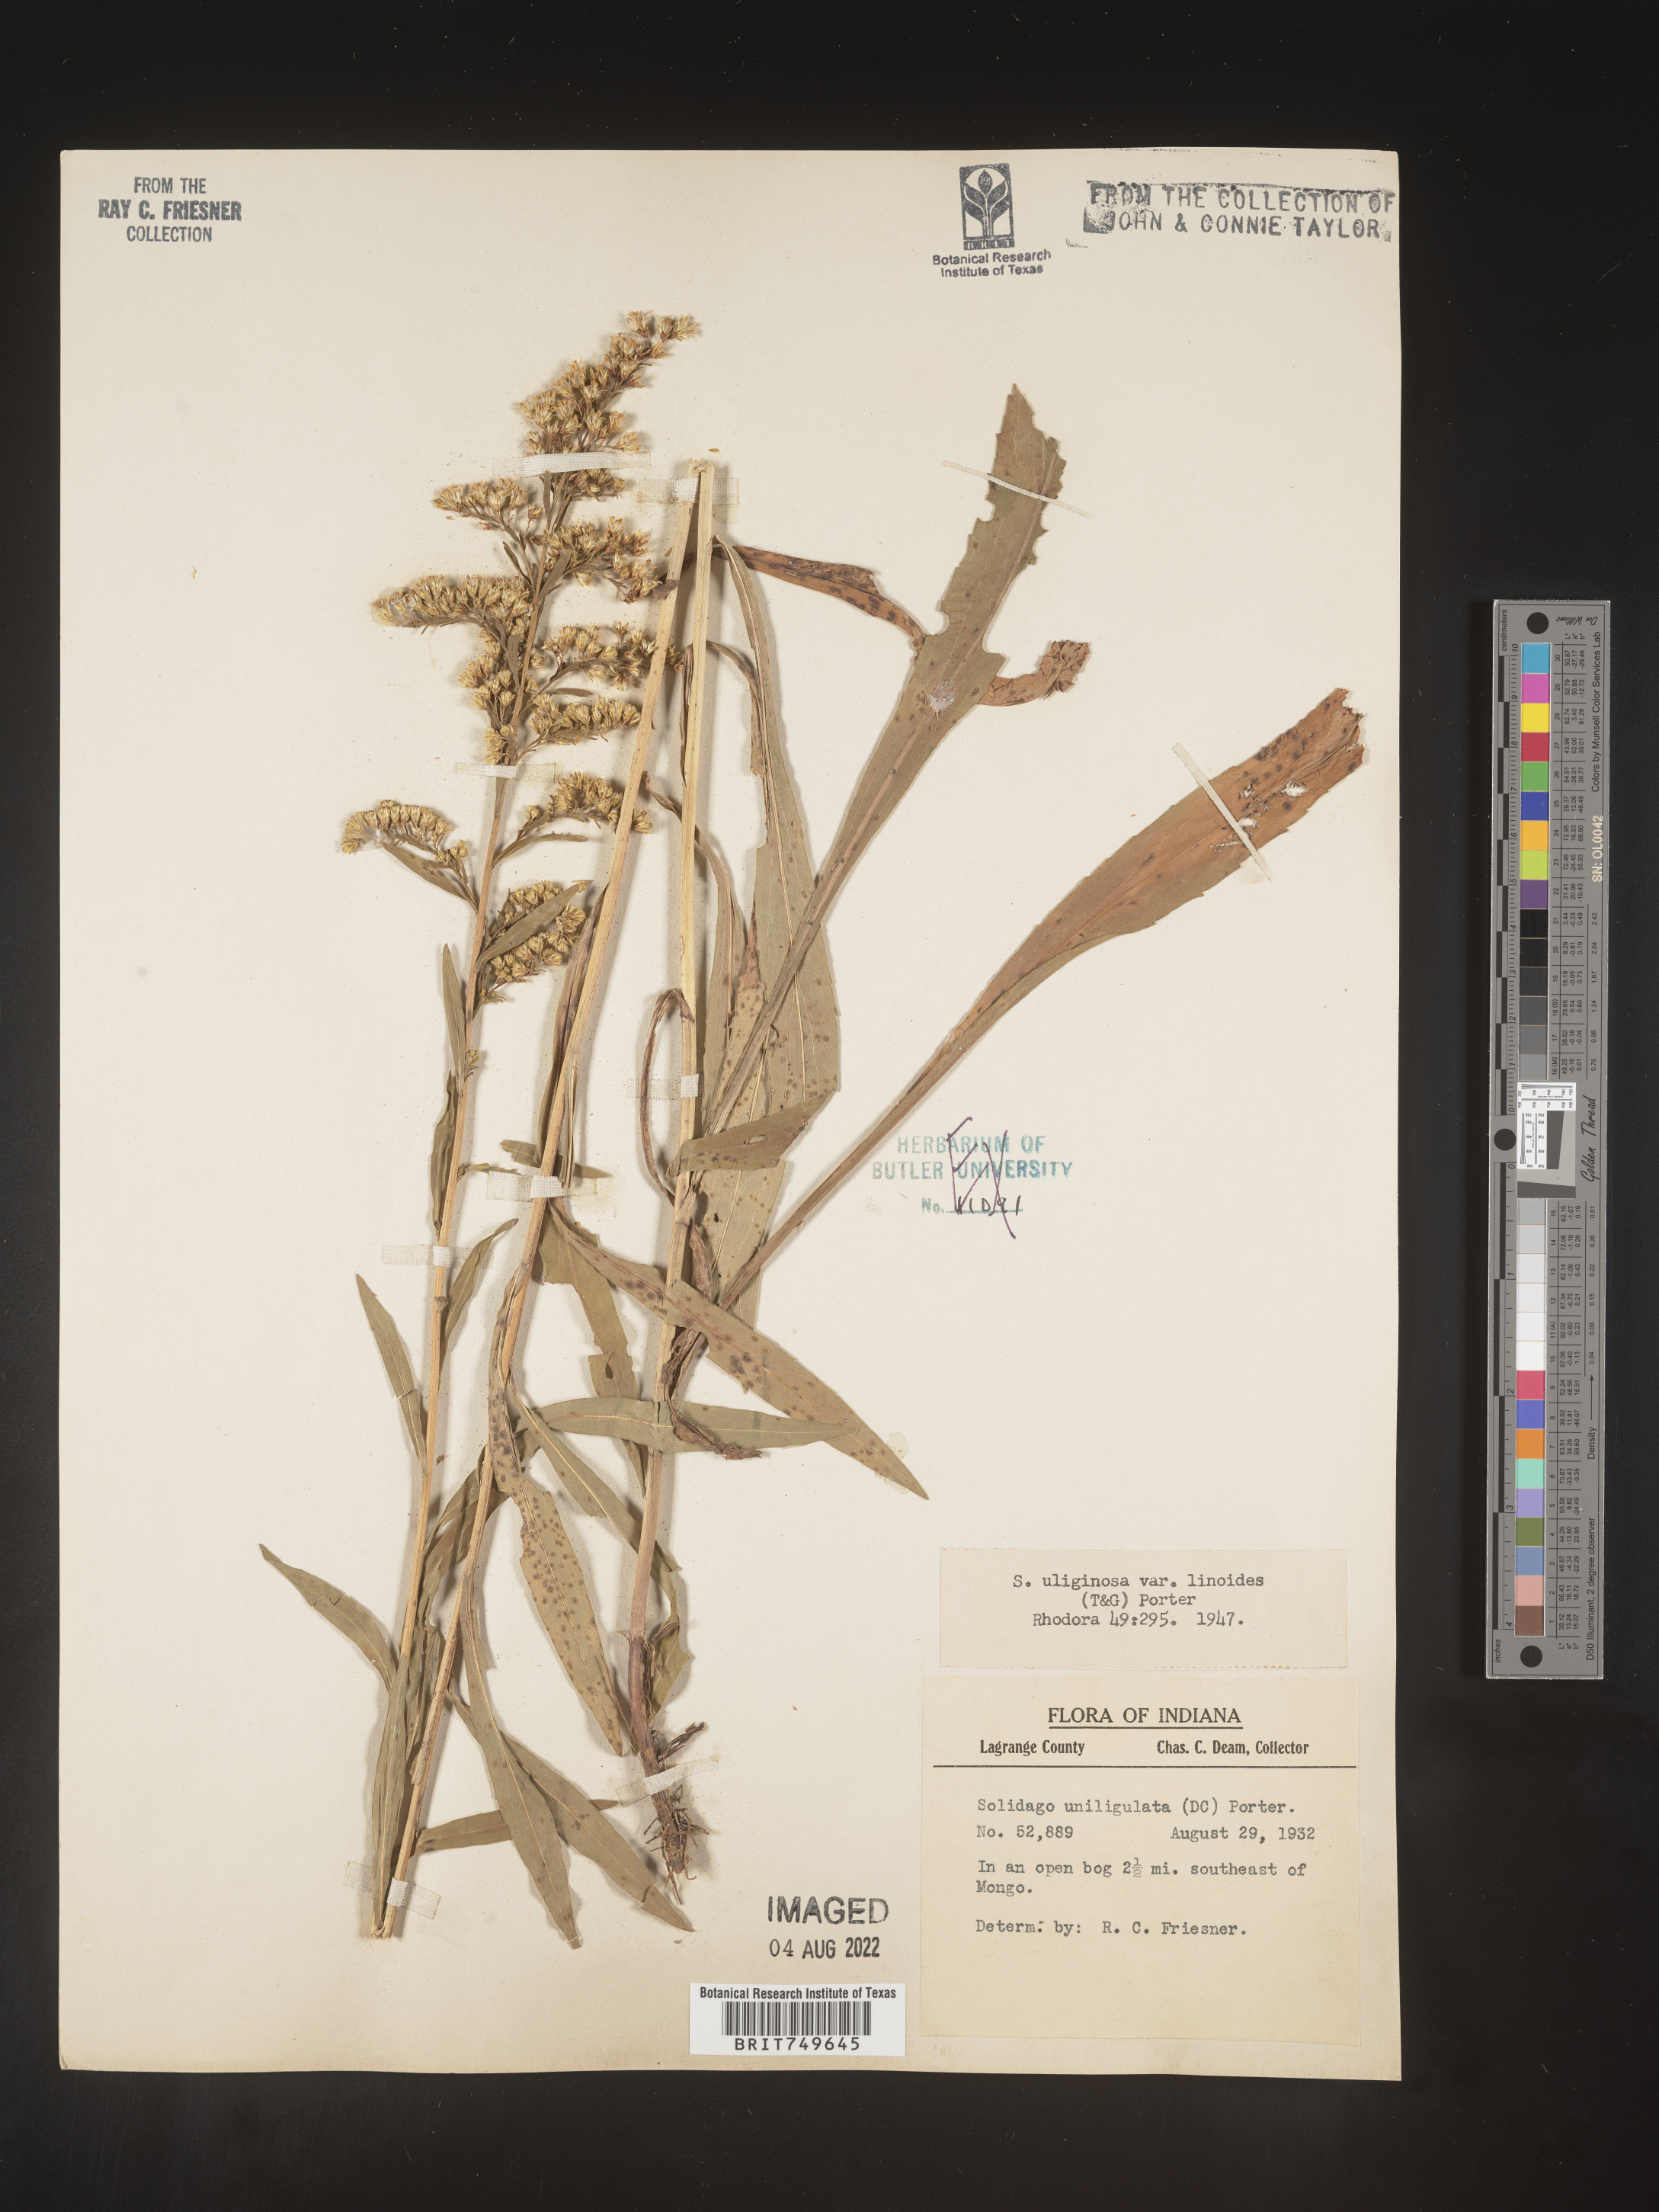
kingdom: Plantae
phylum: Tracheophyta
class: Magnoliopsida
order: Asterales
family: Asteraceae
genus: Solidago
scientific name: Solidago uliginosa
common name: Bog goldenrod
